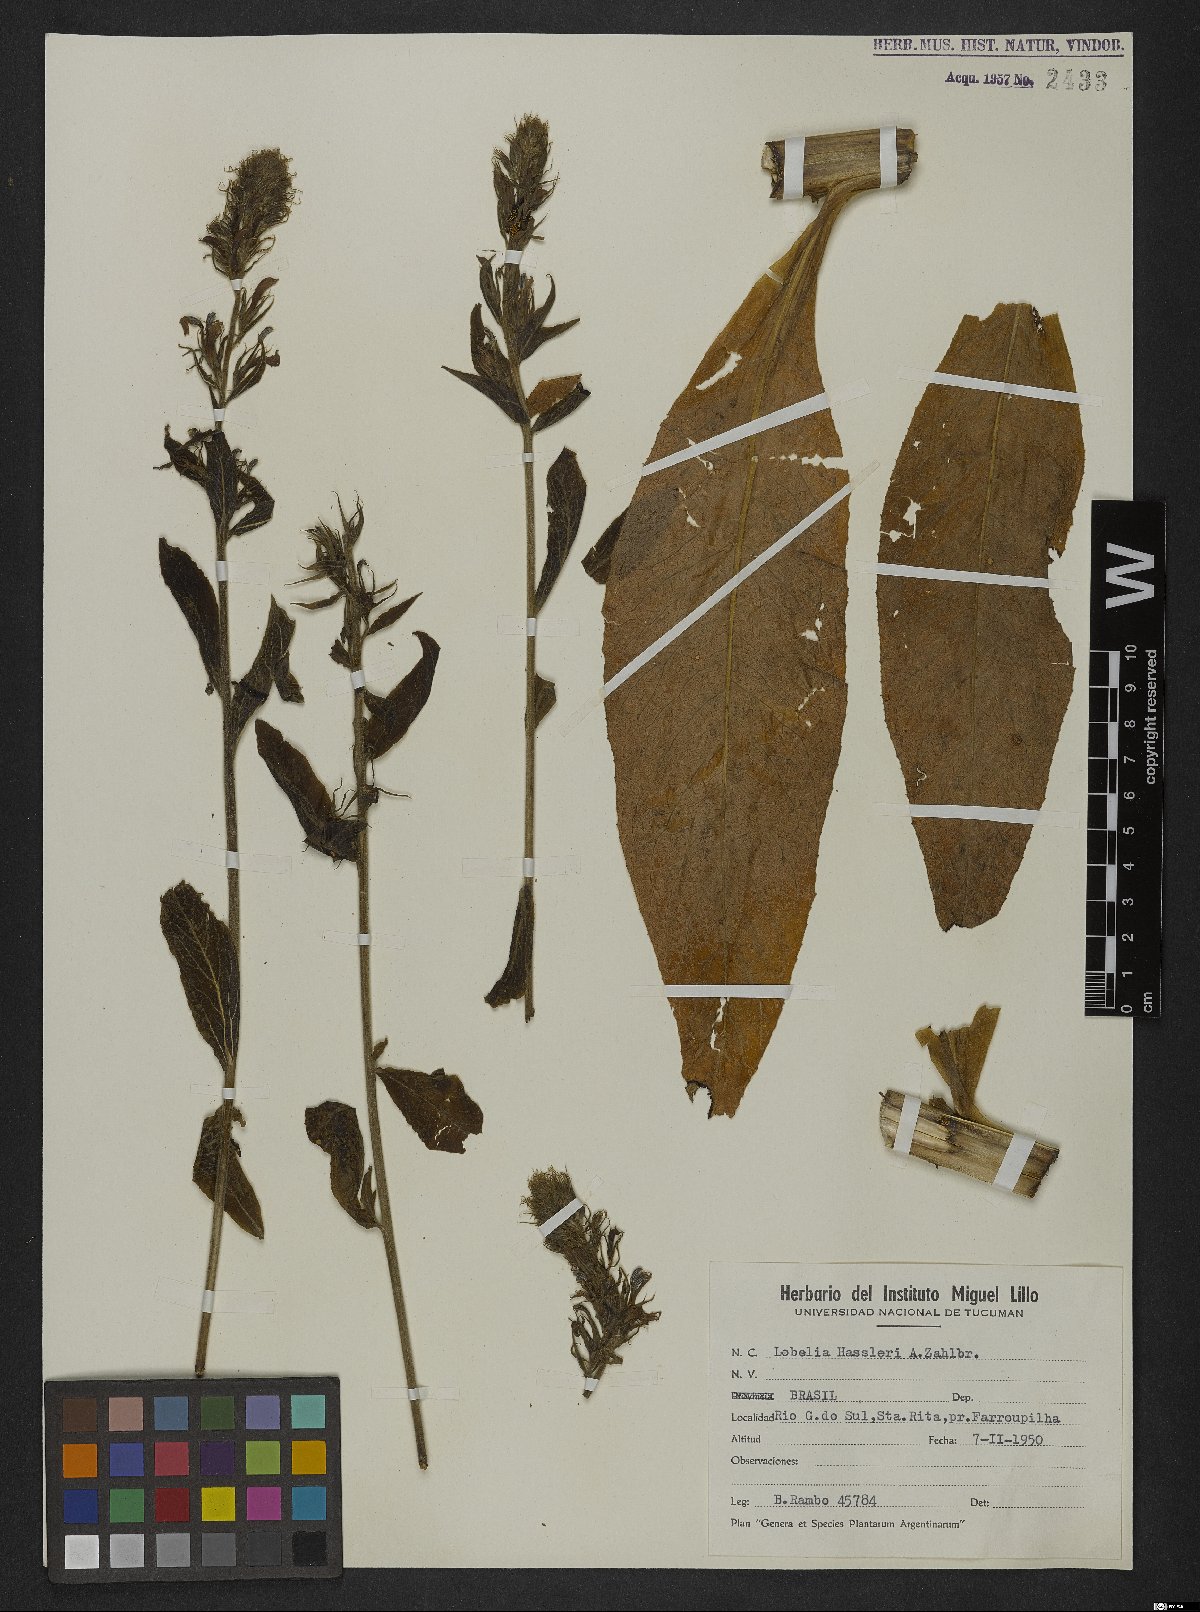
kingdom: Plantae
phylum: Tracheophyta
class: Magnoliopsida
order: Asterales
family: Campanulaceae
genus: Lobelia
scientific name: Lobelia hassleri
